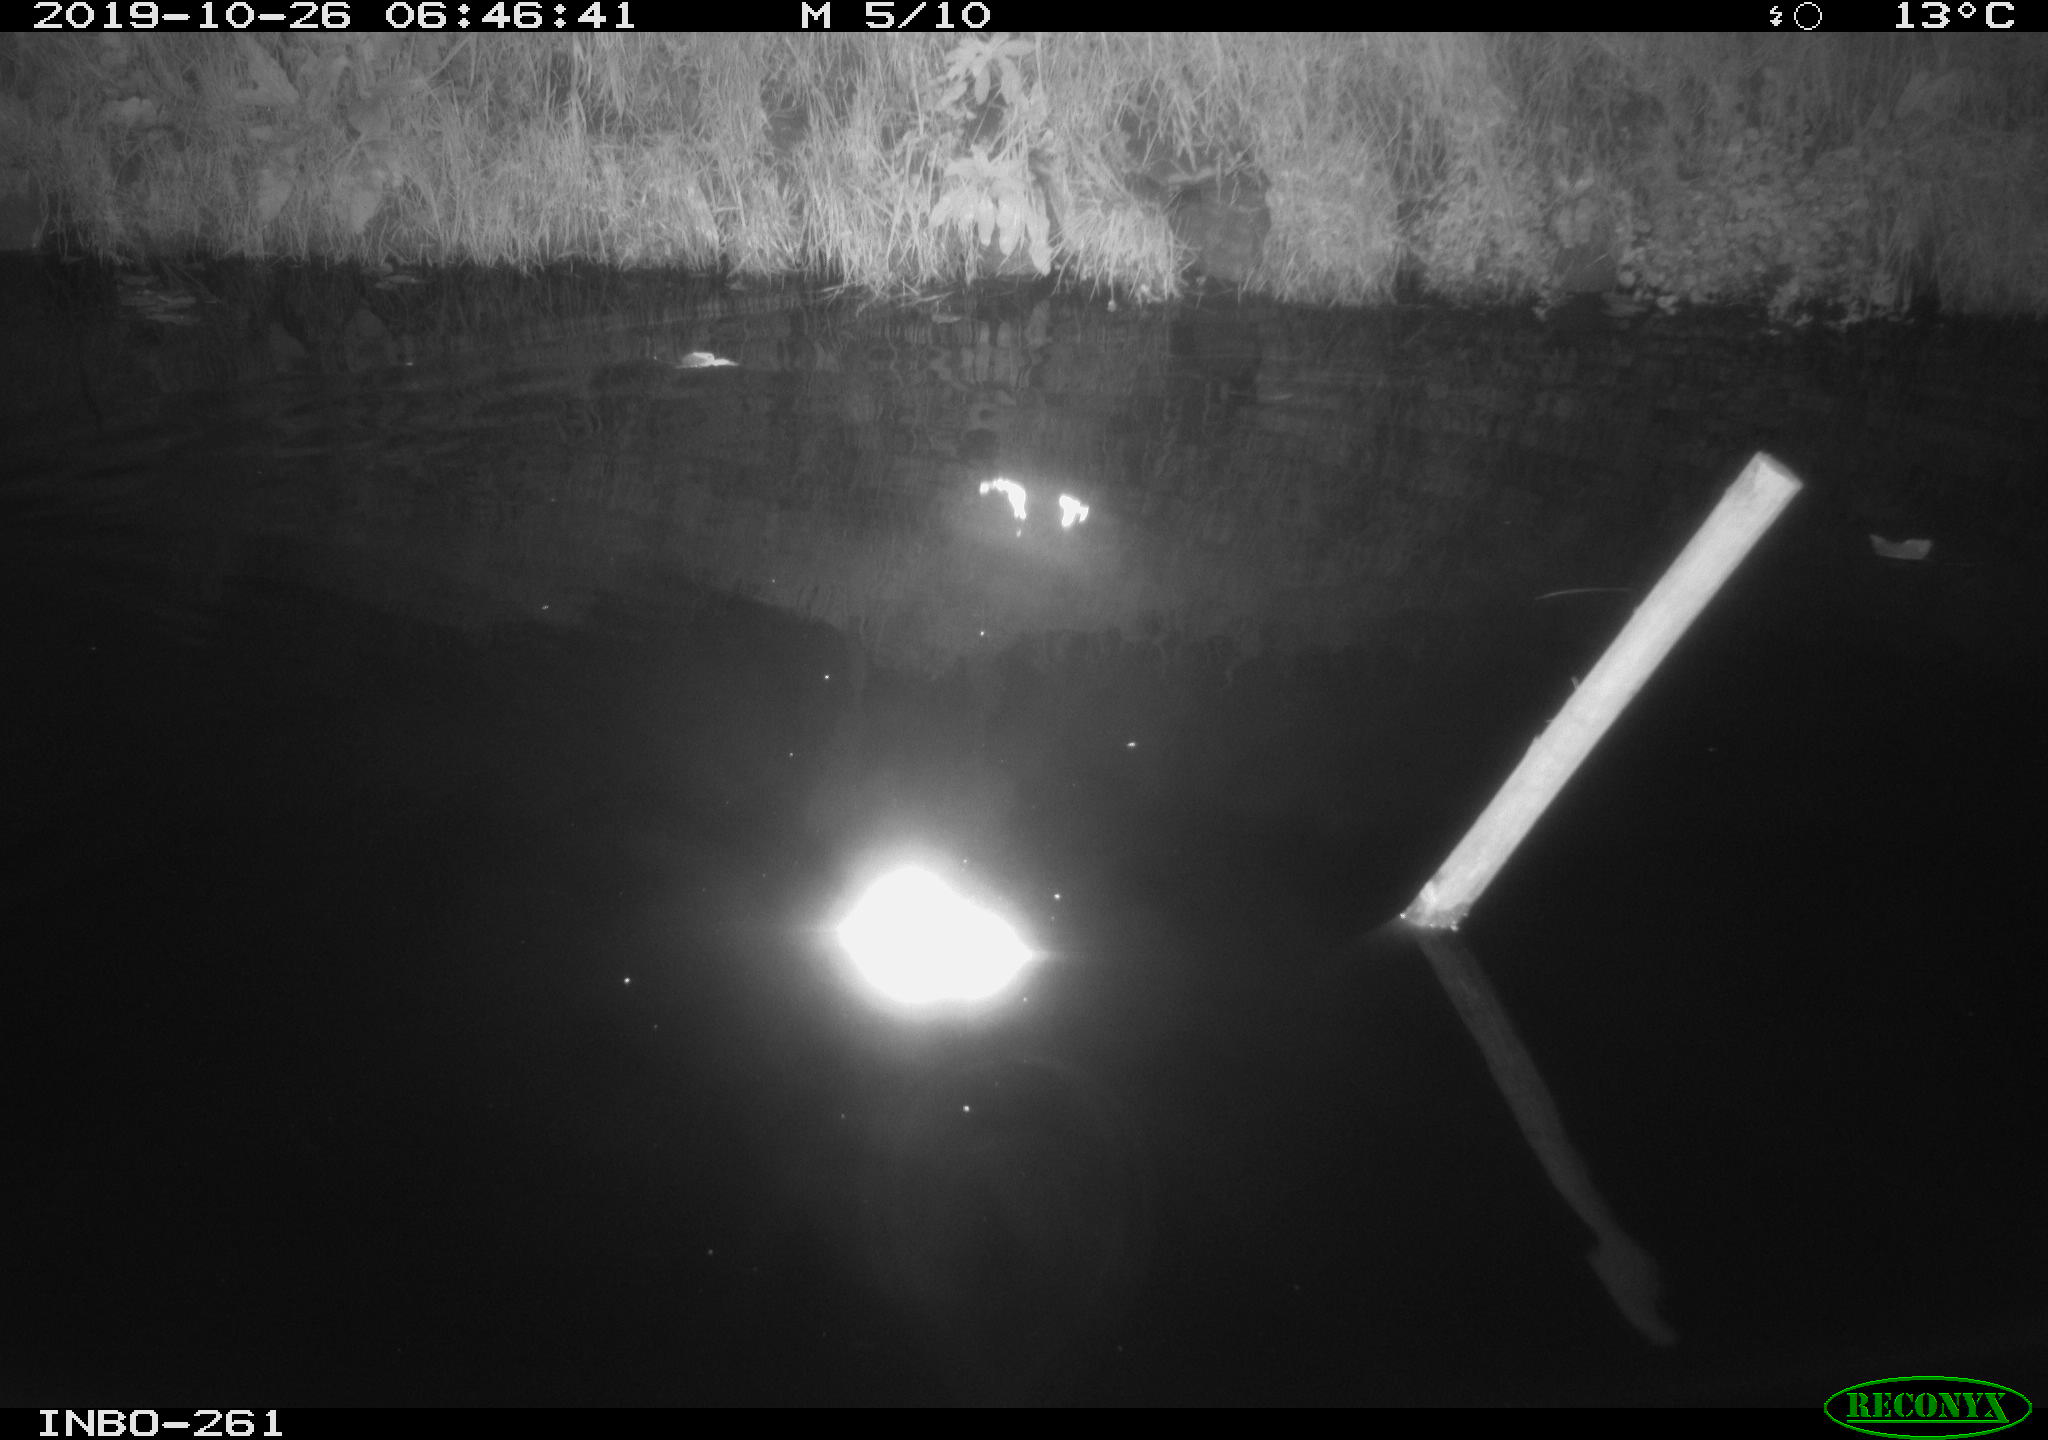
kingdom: Animalia
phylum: Chordata
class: Aves
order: Anseriformes
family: Anatidae
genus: Anas
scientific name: Anas platyrhynchos
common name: Mallard
